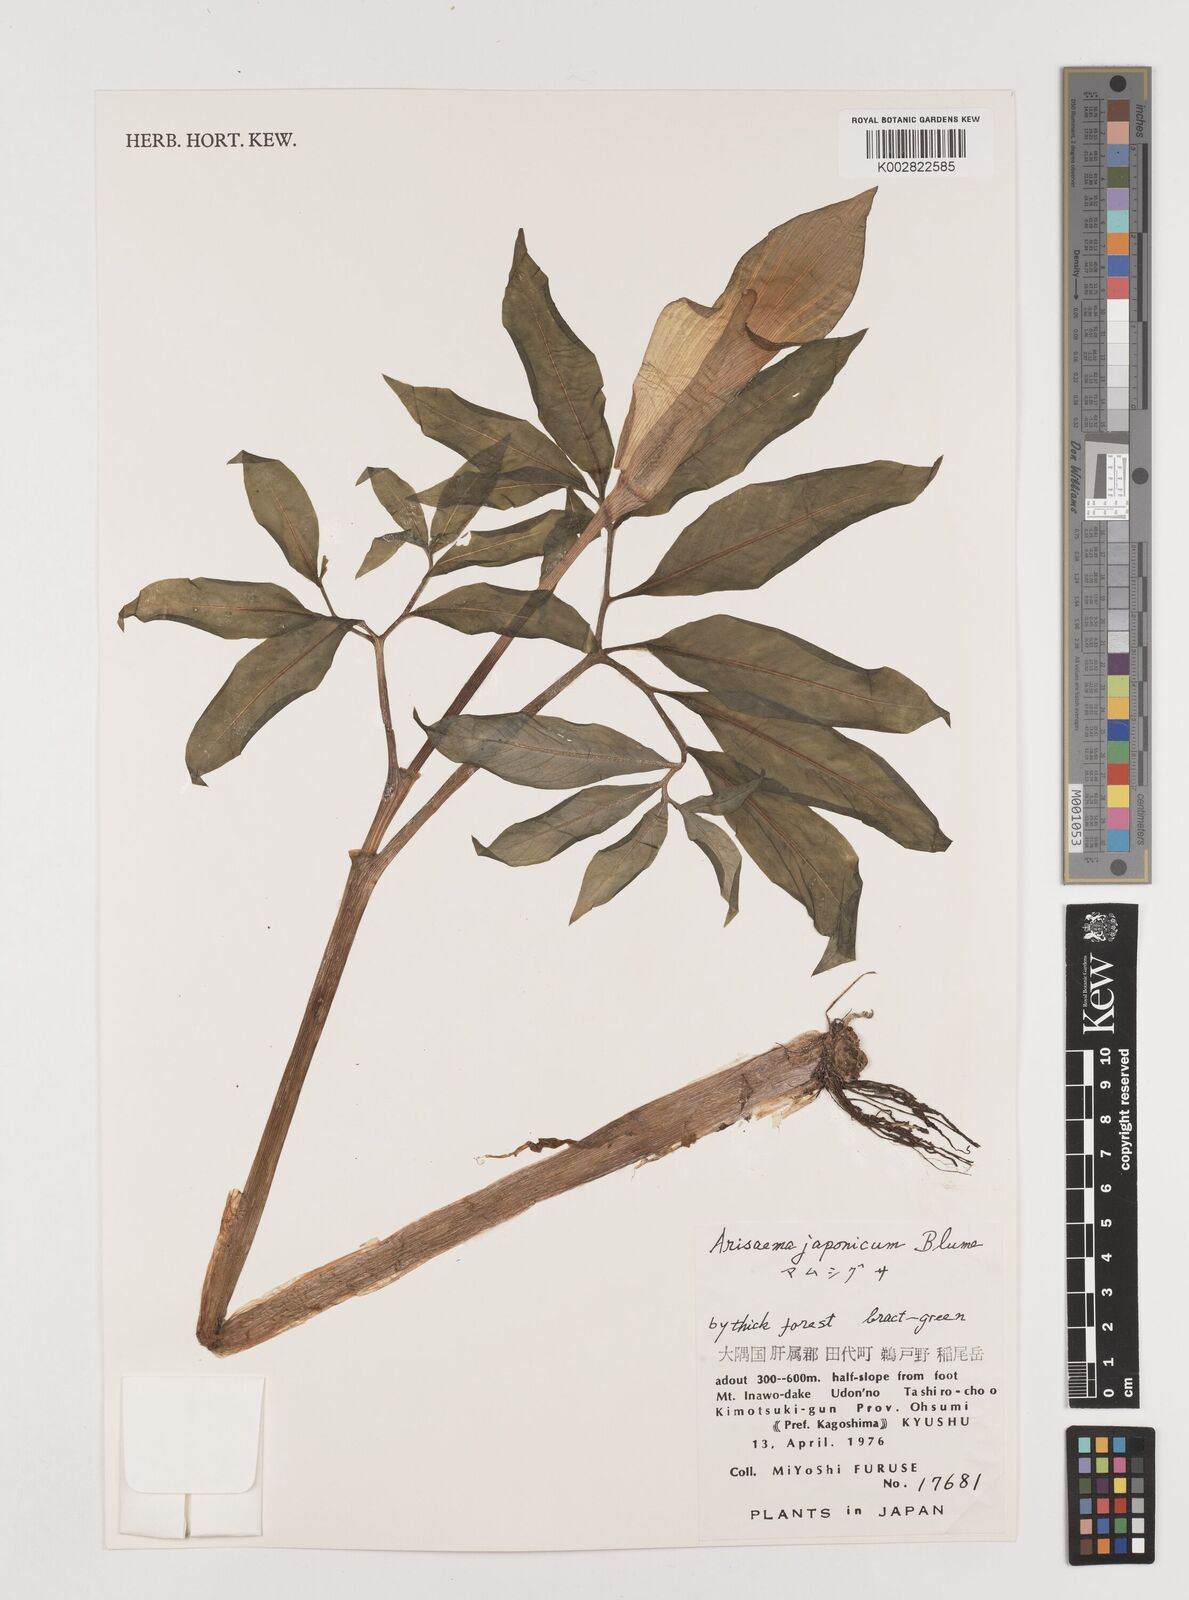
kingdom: Plantae
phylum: Tracheophyta
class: Liliopsida
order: Alismatales
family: Araceae
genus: Arisaema
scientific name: Arisaema serratum
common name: Japanese arisaema
